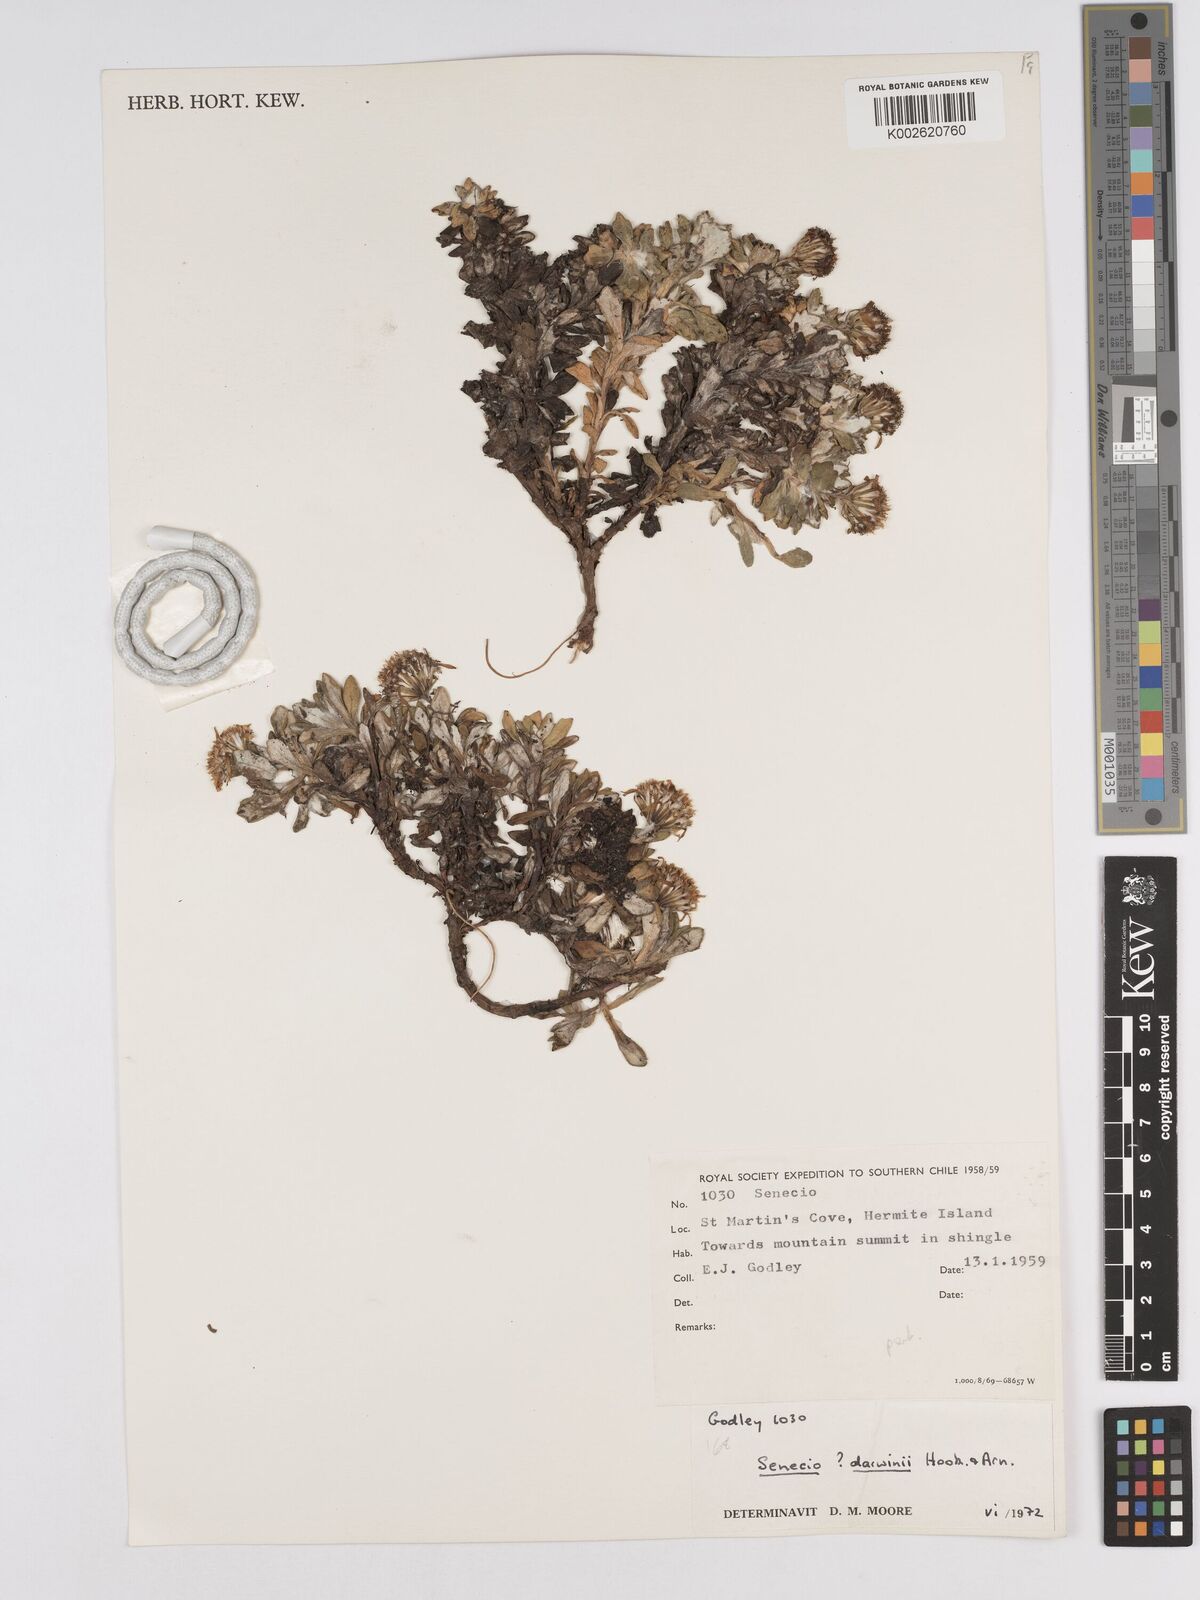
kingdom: Plantae
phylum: Tracheophyta
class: Magnoliopsida
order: Asterales
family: Asteraceae
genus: Senecio
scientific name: Senecio darwinii
